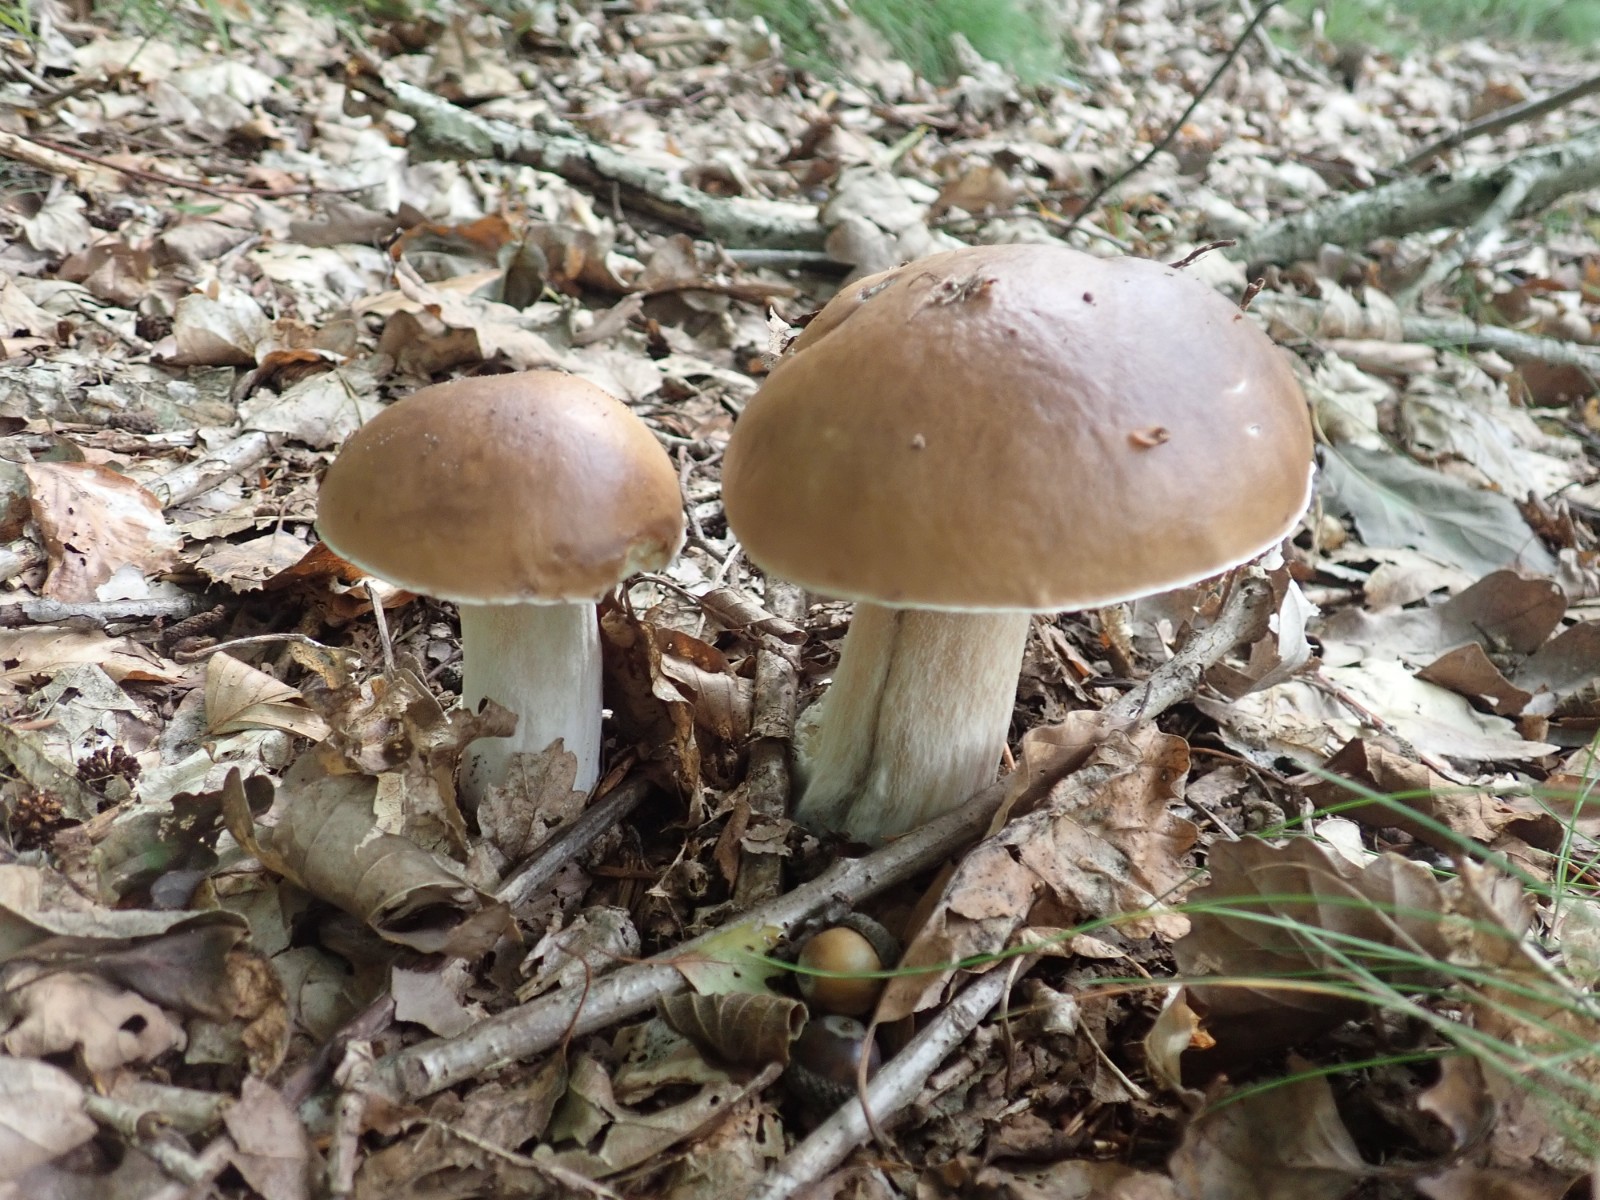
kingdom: Fungi
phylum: Basidiomycota
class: Agaricomycetes
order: Boletales
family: Boletaceae
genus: Boletus
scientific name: Boletus edulis
